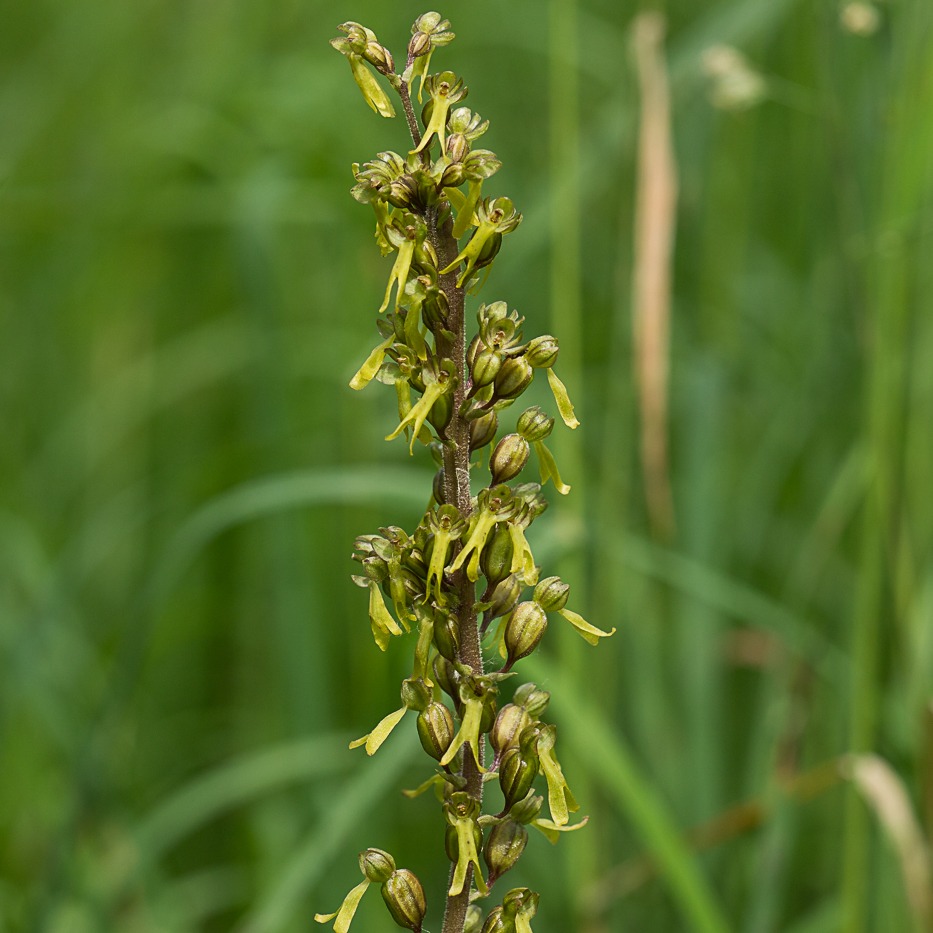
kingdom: Plantae
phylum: Tracheophyta
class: Liliopsida
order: Asparagales
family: Orchidaceae
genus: Neottia
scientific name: Neottia ovata
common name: Ægbladet fliglæbe
